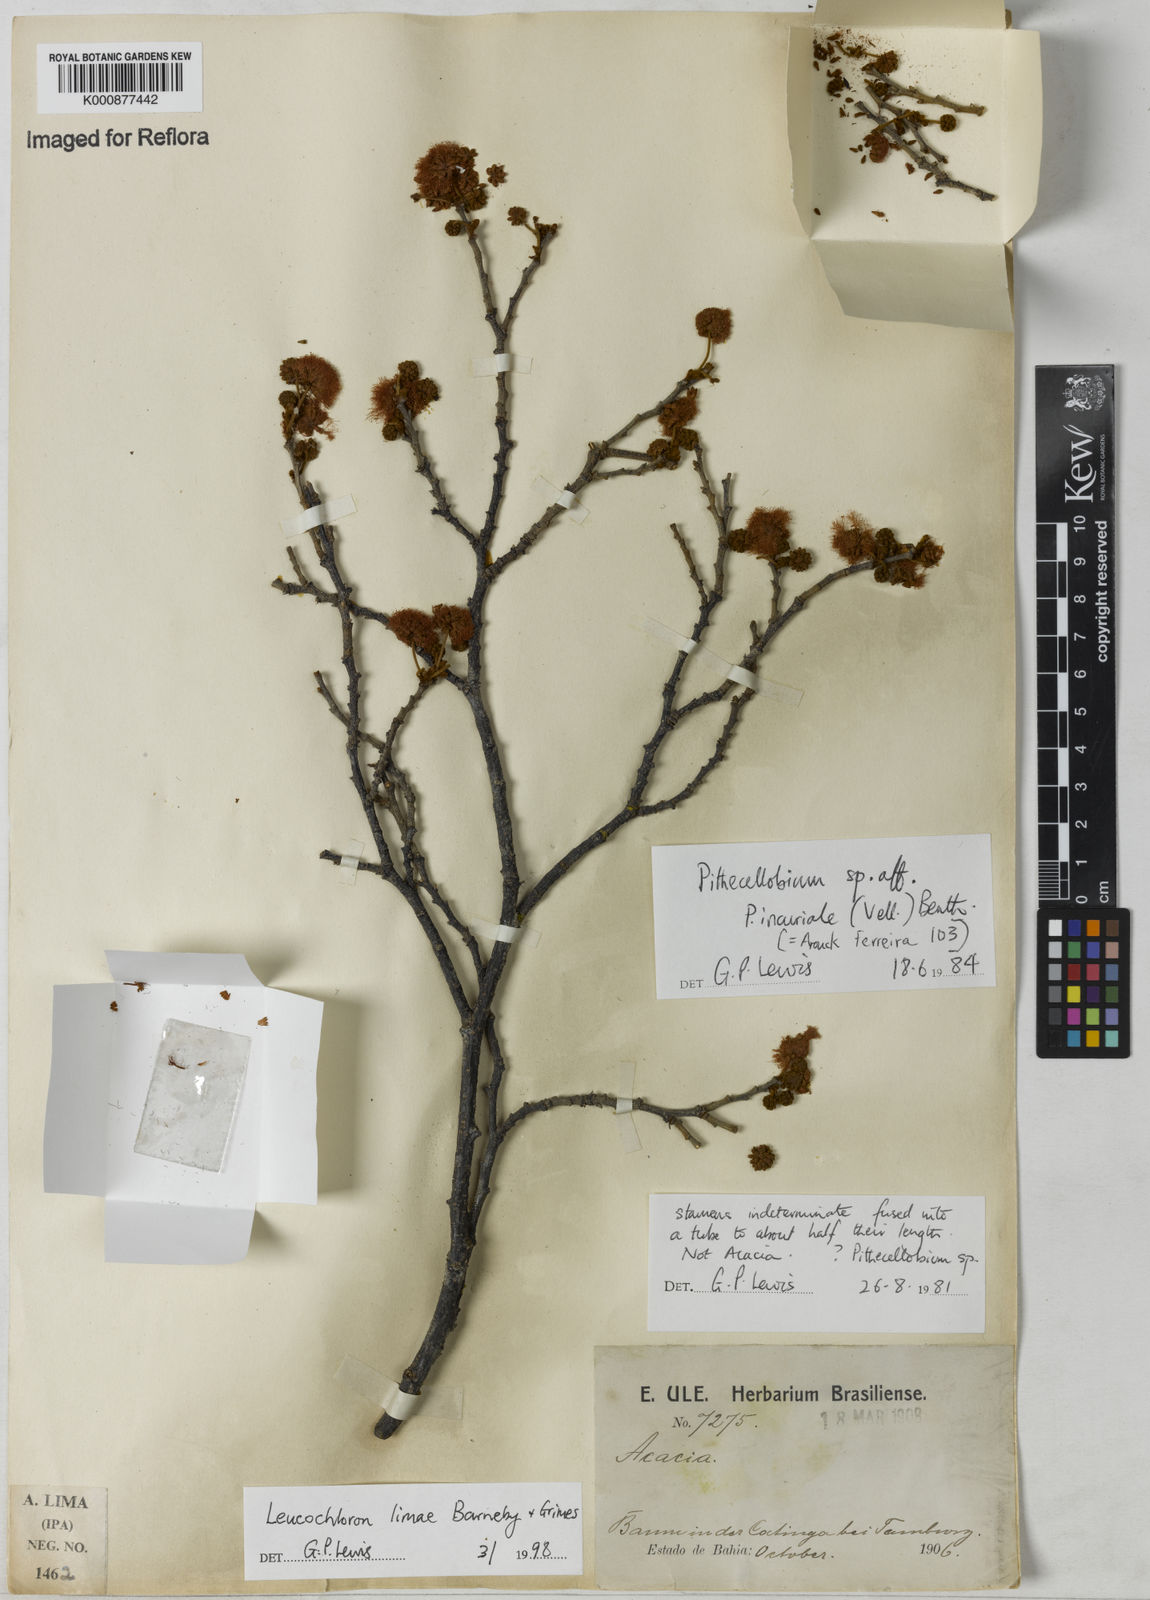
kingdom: Plantae
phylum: Tracheophyta
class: Magnoliopsida
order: Fabales
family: Fabaceae
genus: Leucochloron
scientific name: Leucochloron limae
